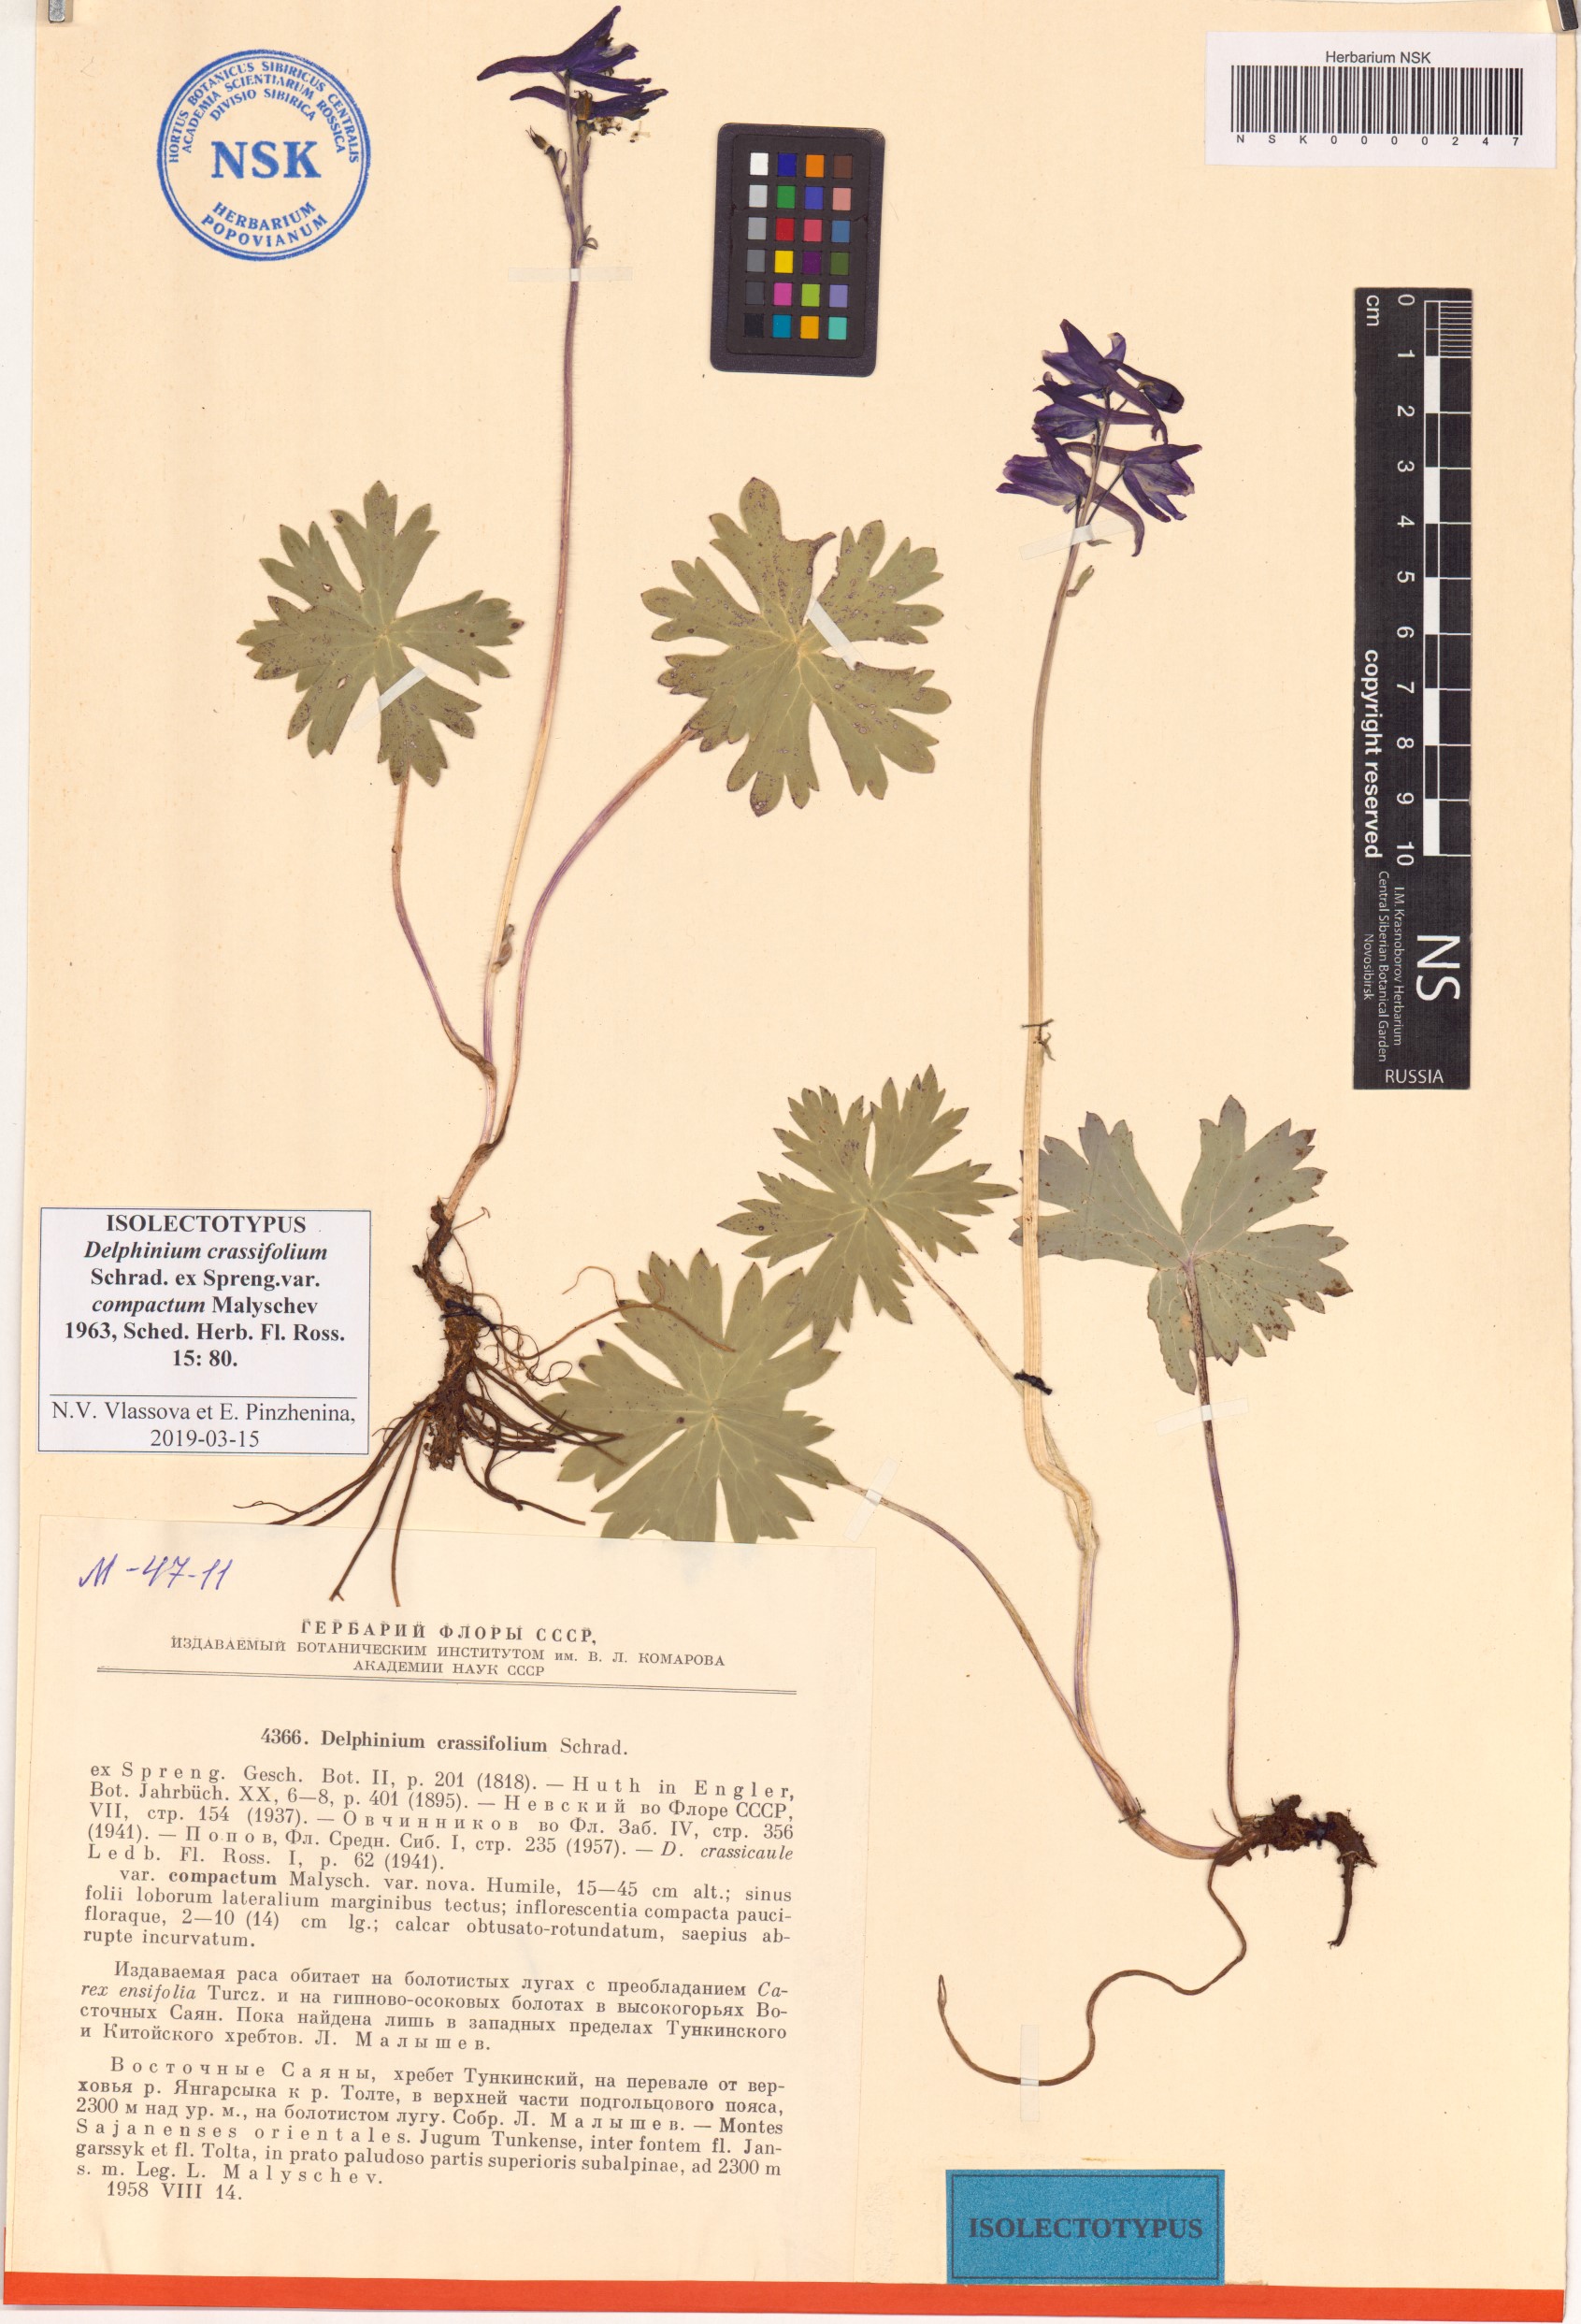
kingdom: Plantae
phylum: Tracheophyta
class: Magnoliopsida
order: Ranunculales
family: Ranunculaceae
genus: Delphinium
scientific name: Delphinium crassifolium
